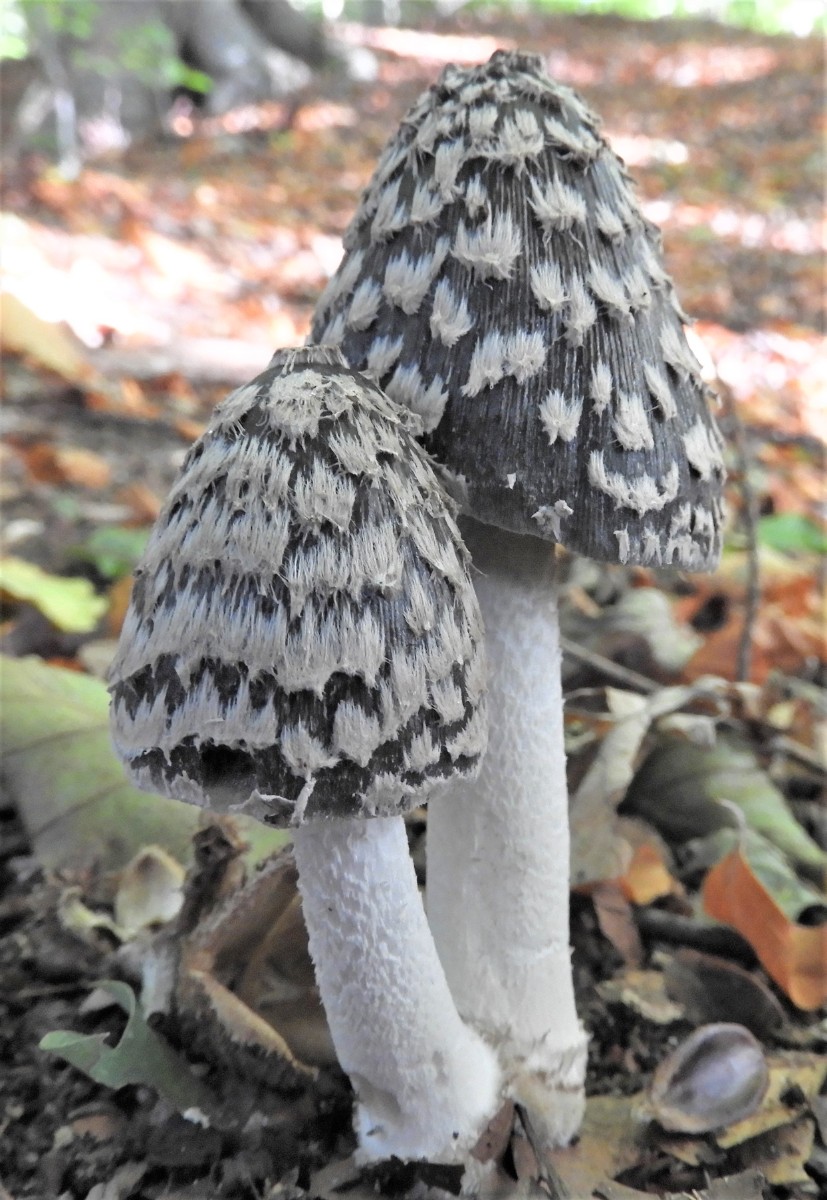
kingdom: Fungi
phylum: Basidiomycota
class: Agaricomycetes
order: Agaricales
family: Psathyrellaceae
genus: Coprinopsis
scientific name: Coprinopsis picacea
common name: skade-blækhat
